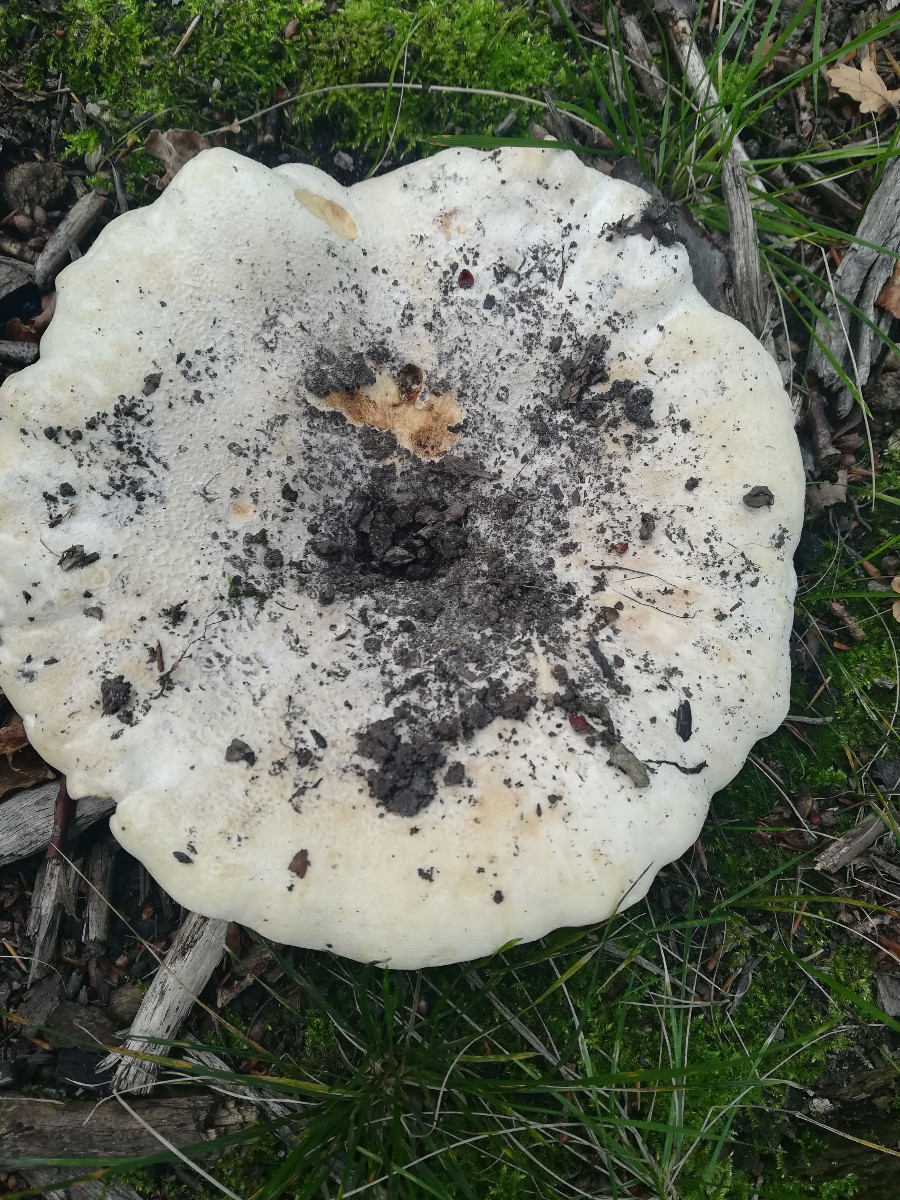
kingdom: Fungi
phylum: Basidiomycota
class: Agaricomycetes
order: Russulales
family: Russulaceae
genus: Lactifluus
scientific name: Lactifluus bertillonii
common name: blødfiltet mælkehat
